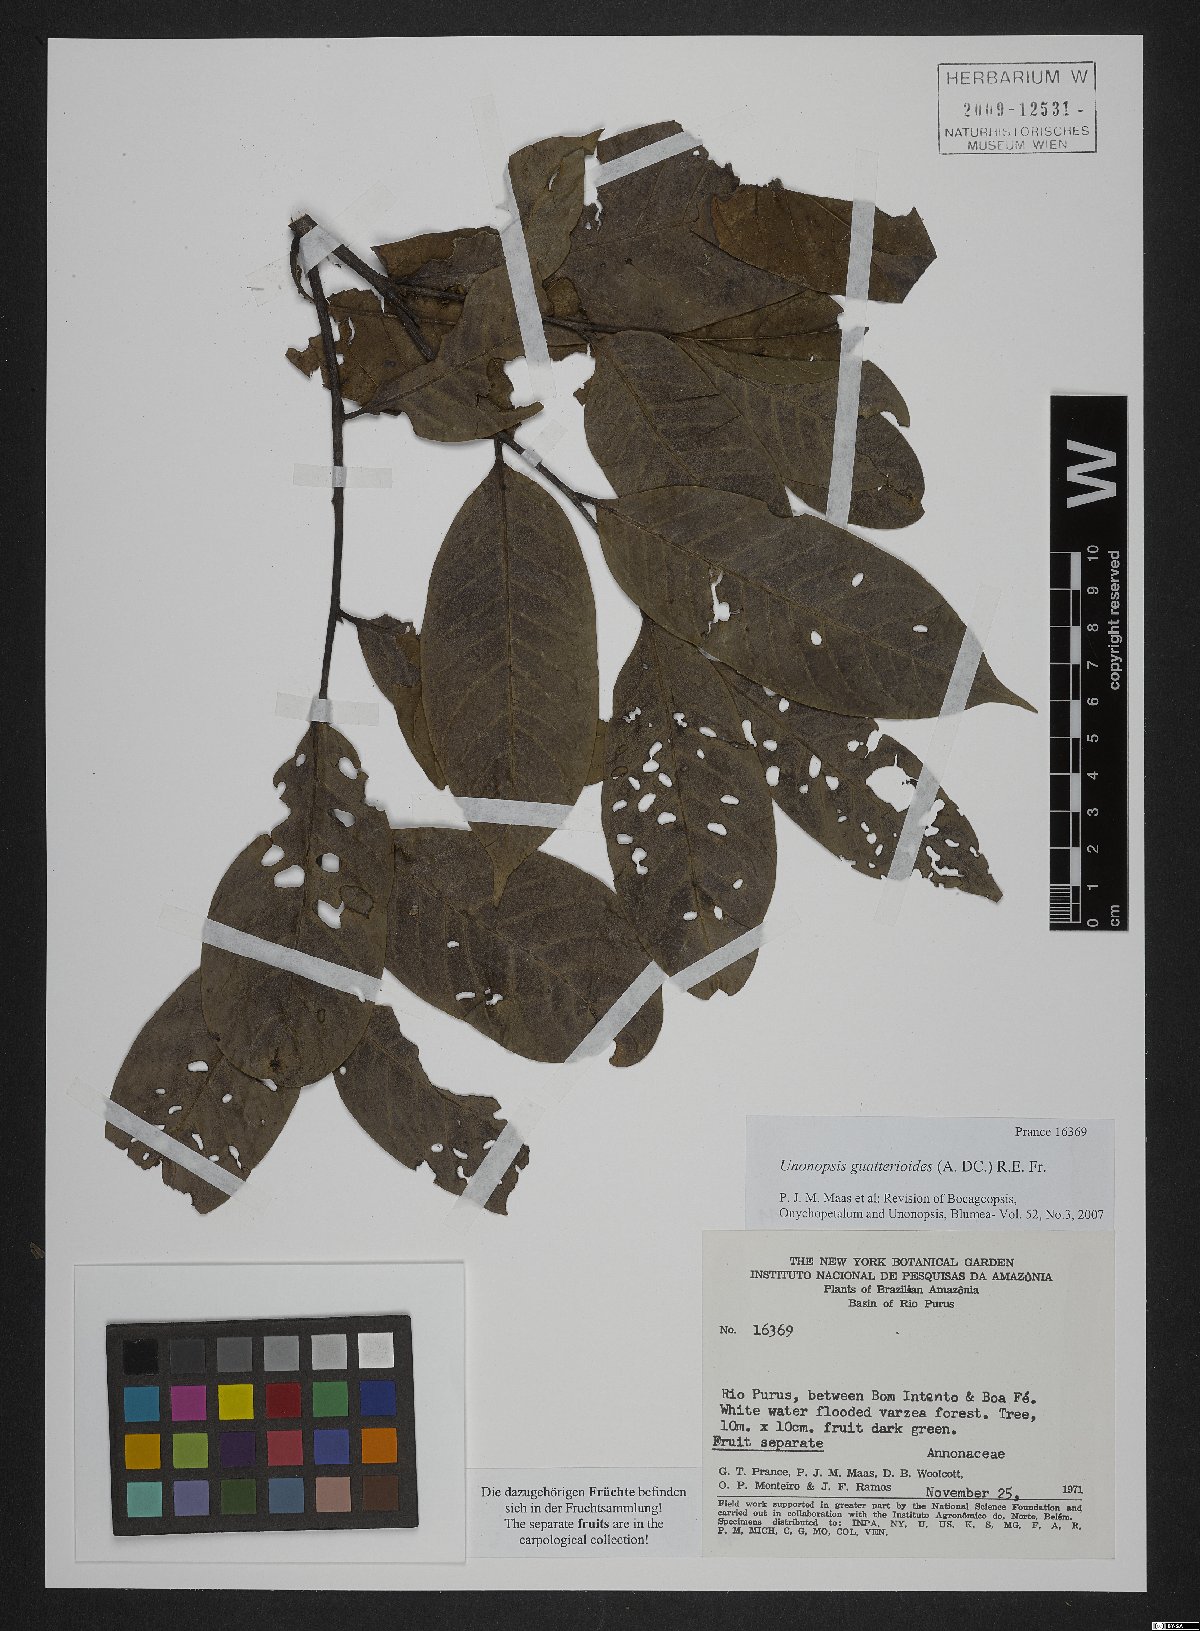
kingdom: Plantae
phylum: Tracheophyta
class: Magnoliopsida
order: Magnoliales
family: Annonaceae
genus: Unonopsis
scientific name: Unonopsis guatterioides
